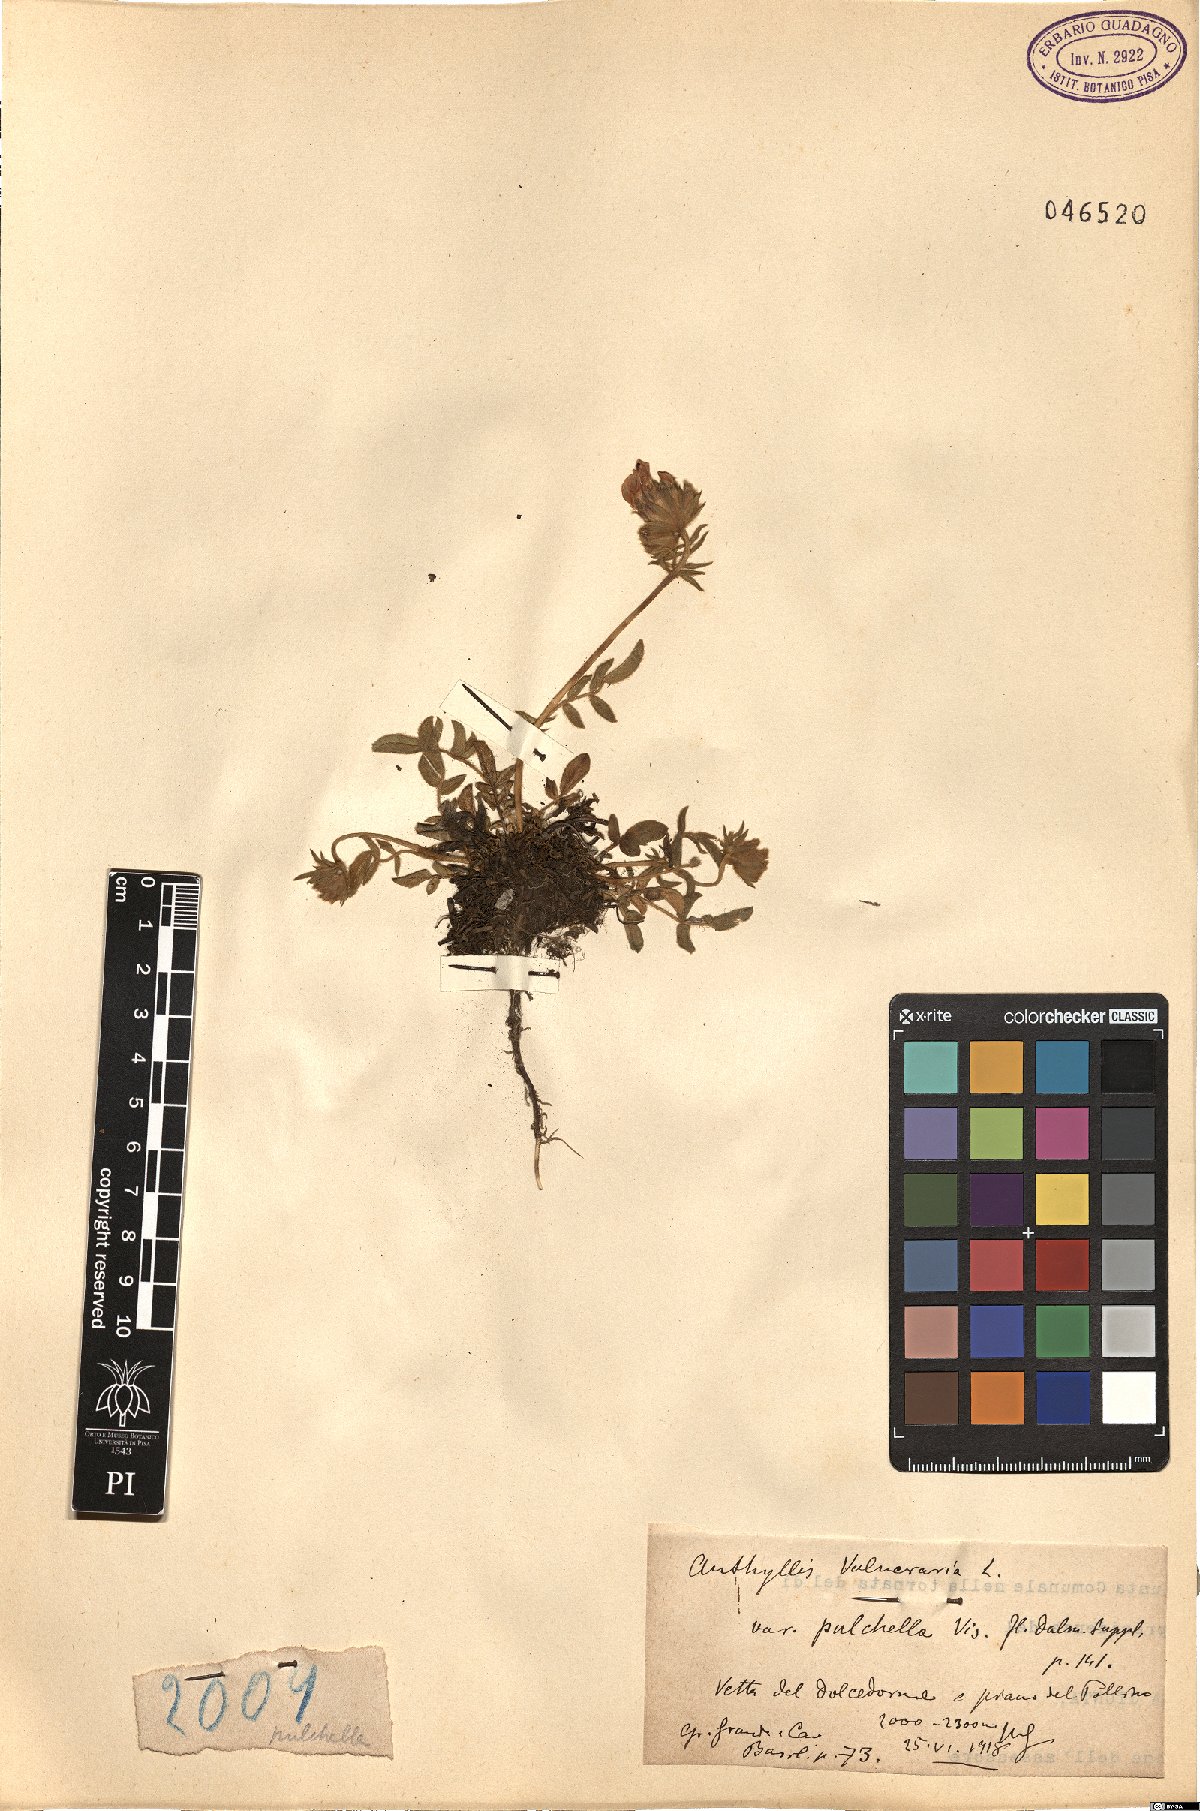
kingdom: Plantae
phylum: Tracheophyta
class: Magnoliopsida
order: Fabales
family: Fabaceae
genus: Anthyllis
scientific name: Anthyllis vulneraria
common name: Kidney vetch
